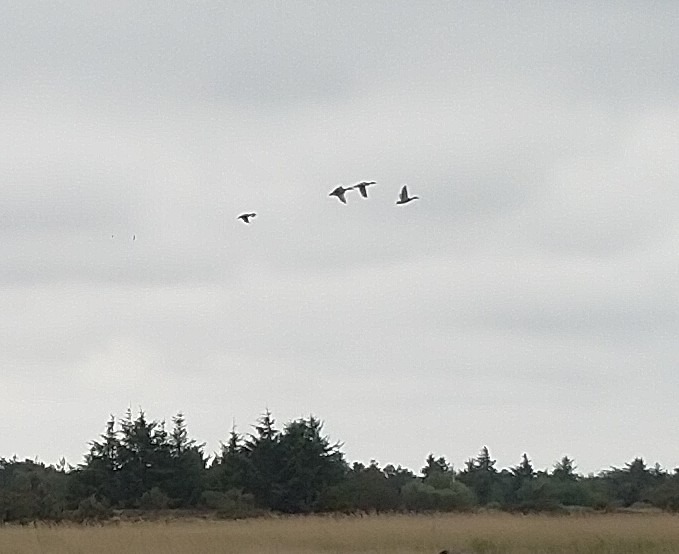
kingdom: Animalia
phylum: Chordata
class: Aves
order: Anseriformes
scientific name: Anseriformes
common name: Andefugle
